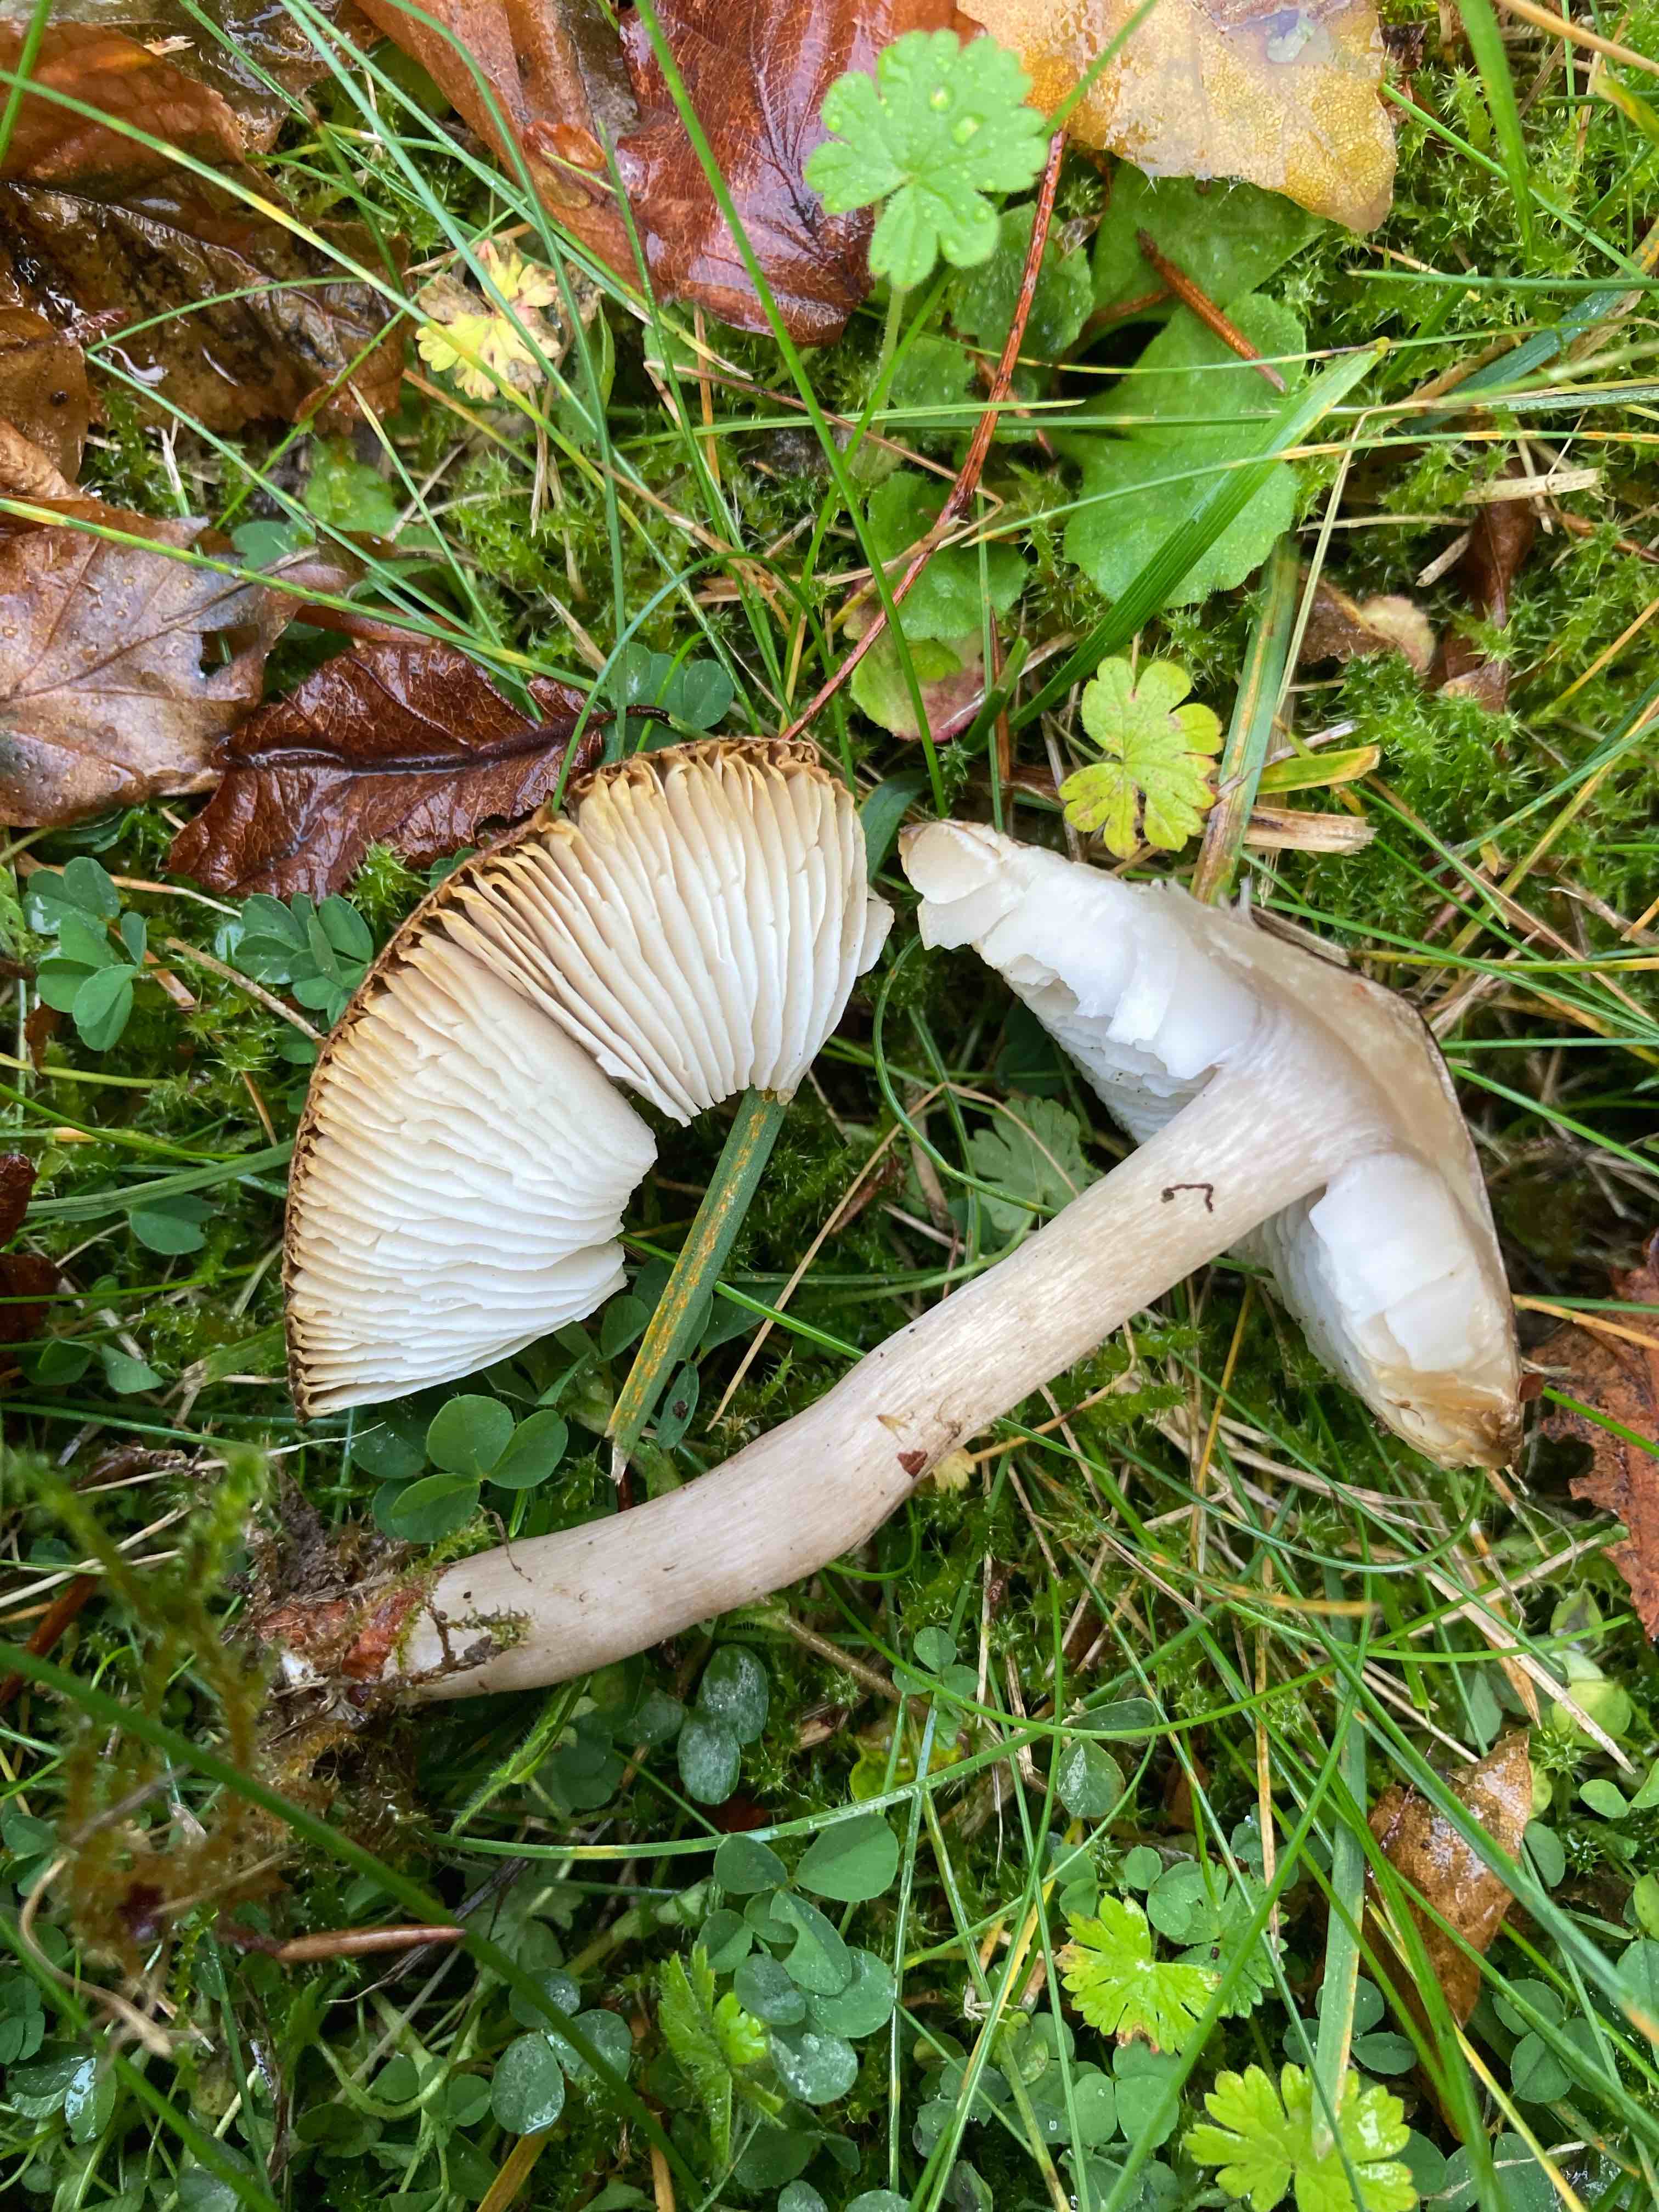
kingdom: Fungi
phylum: Basidiomycota
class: Agaricomycetes
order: Agaricales
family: Tricholomataceae
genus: Tricholoma
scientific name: Tricholoma scalpturatum
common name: gulplettet ridderhat
